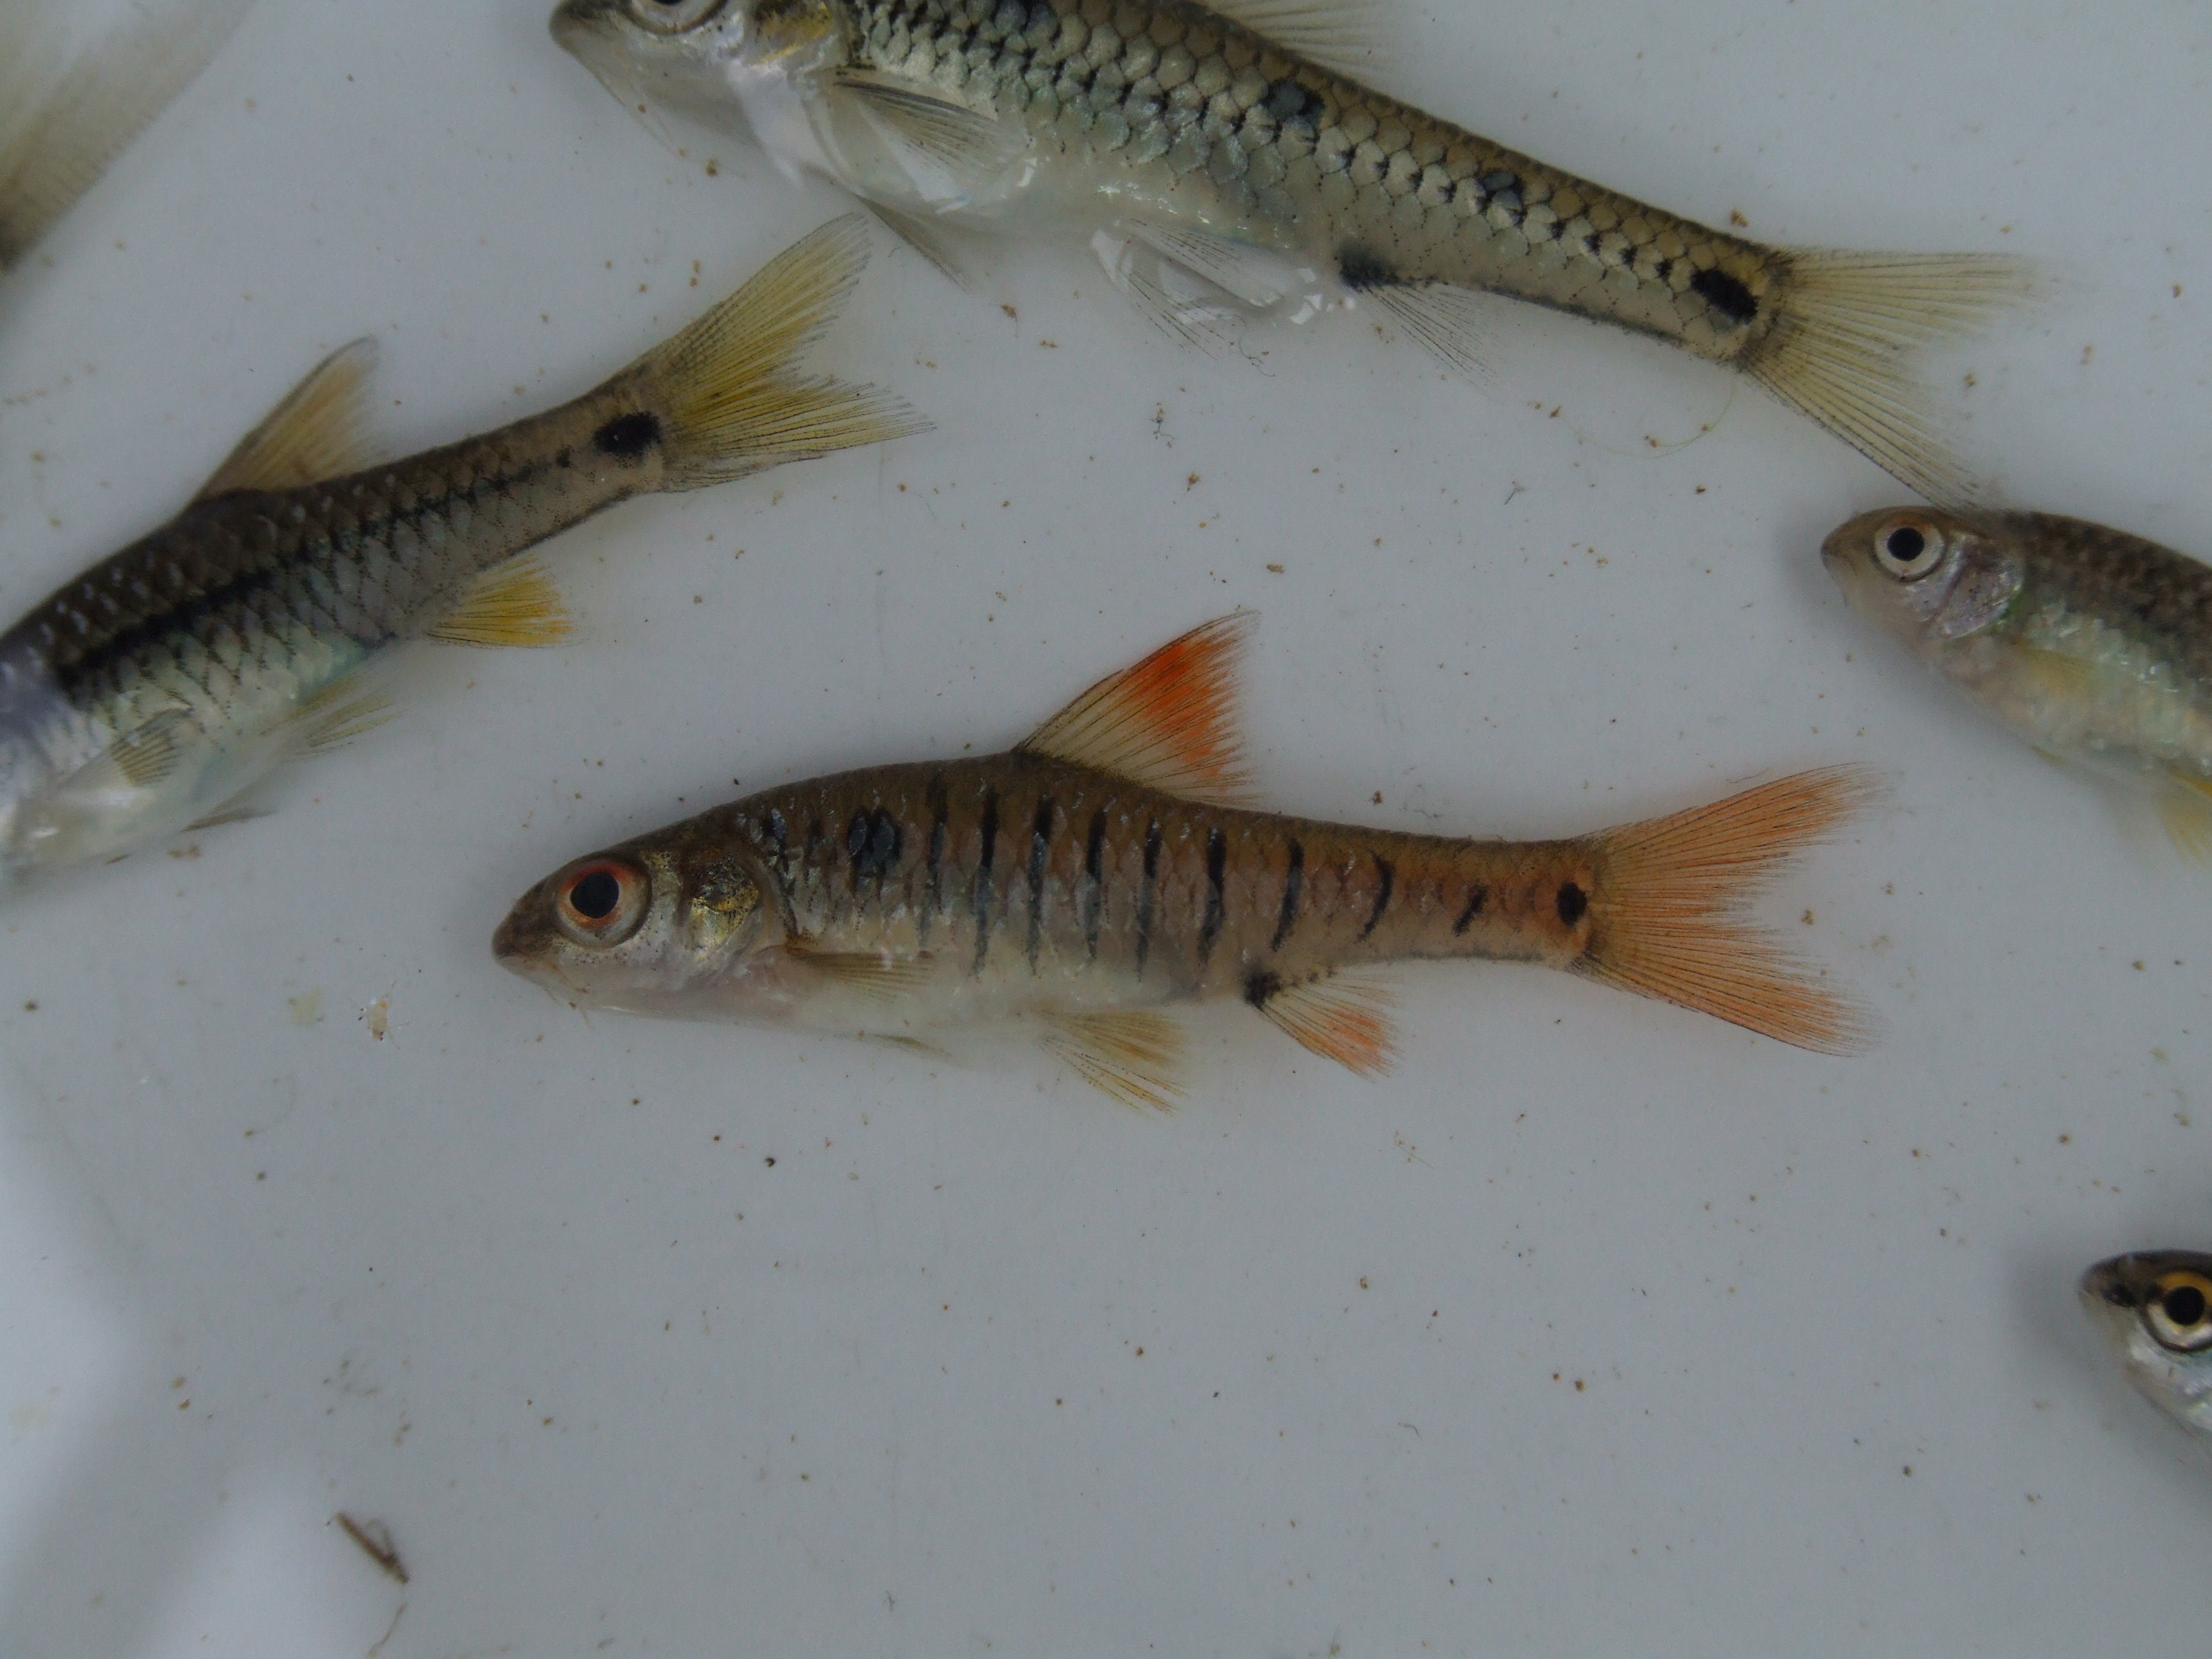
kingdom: Animalia
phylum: Chordata
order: Cypriniformes
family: Cyprinidae
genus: Enteromius
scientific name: Enteromius fasciolatus
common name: Red barb
